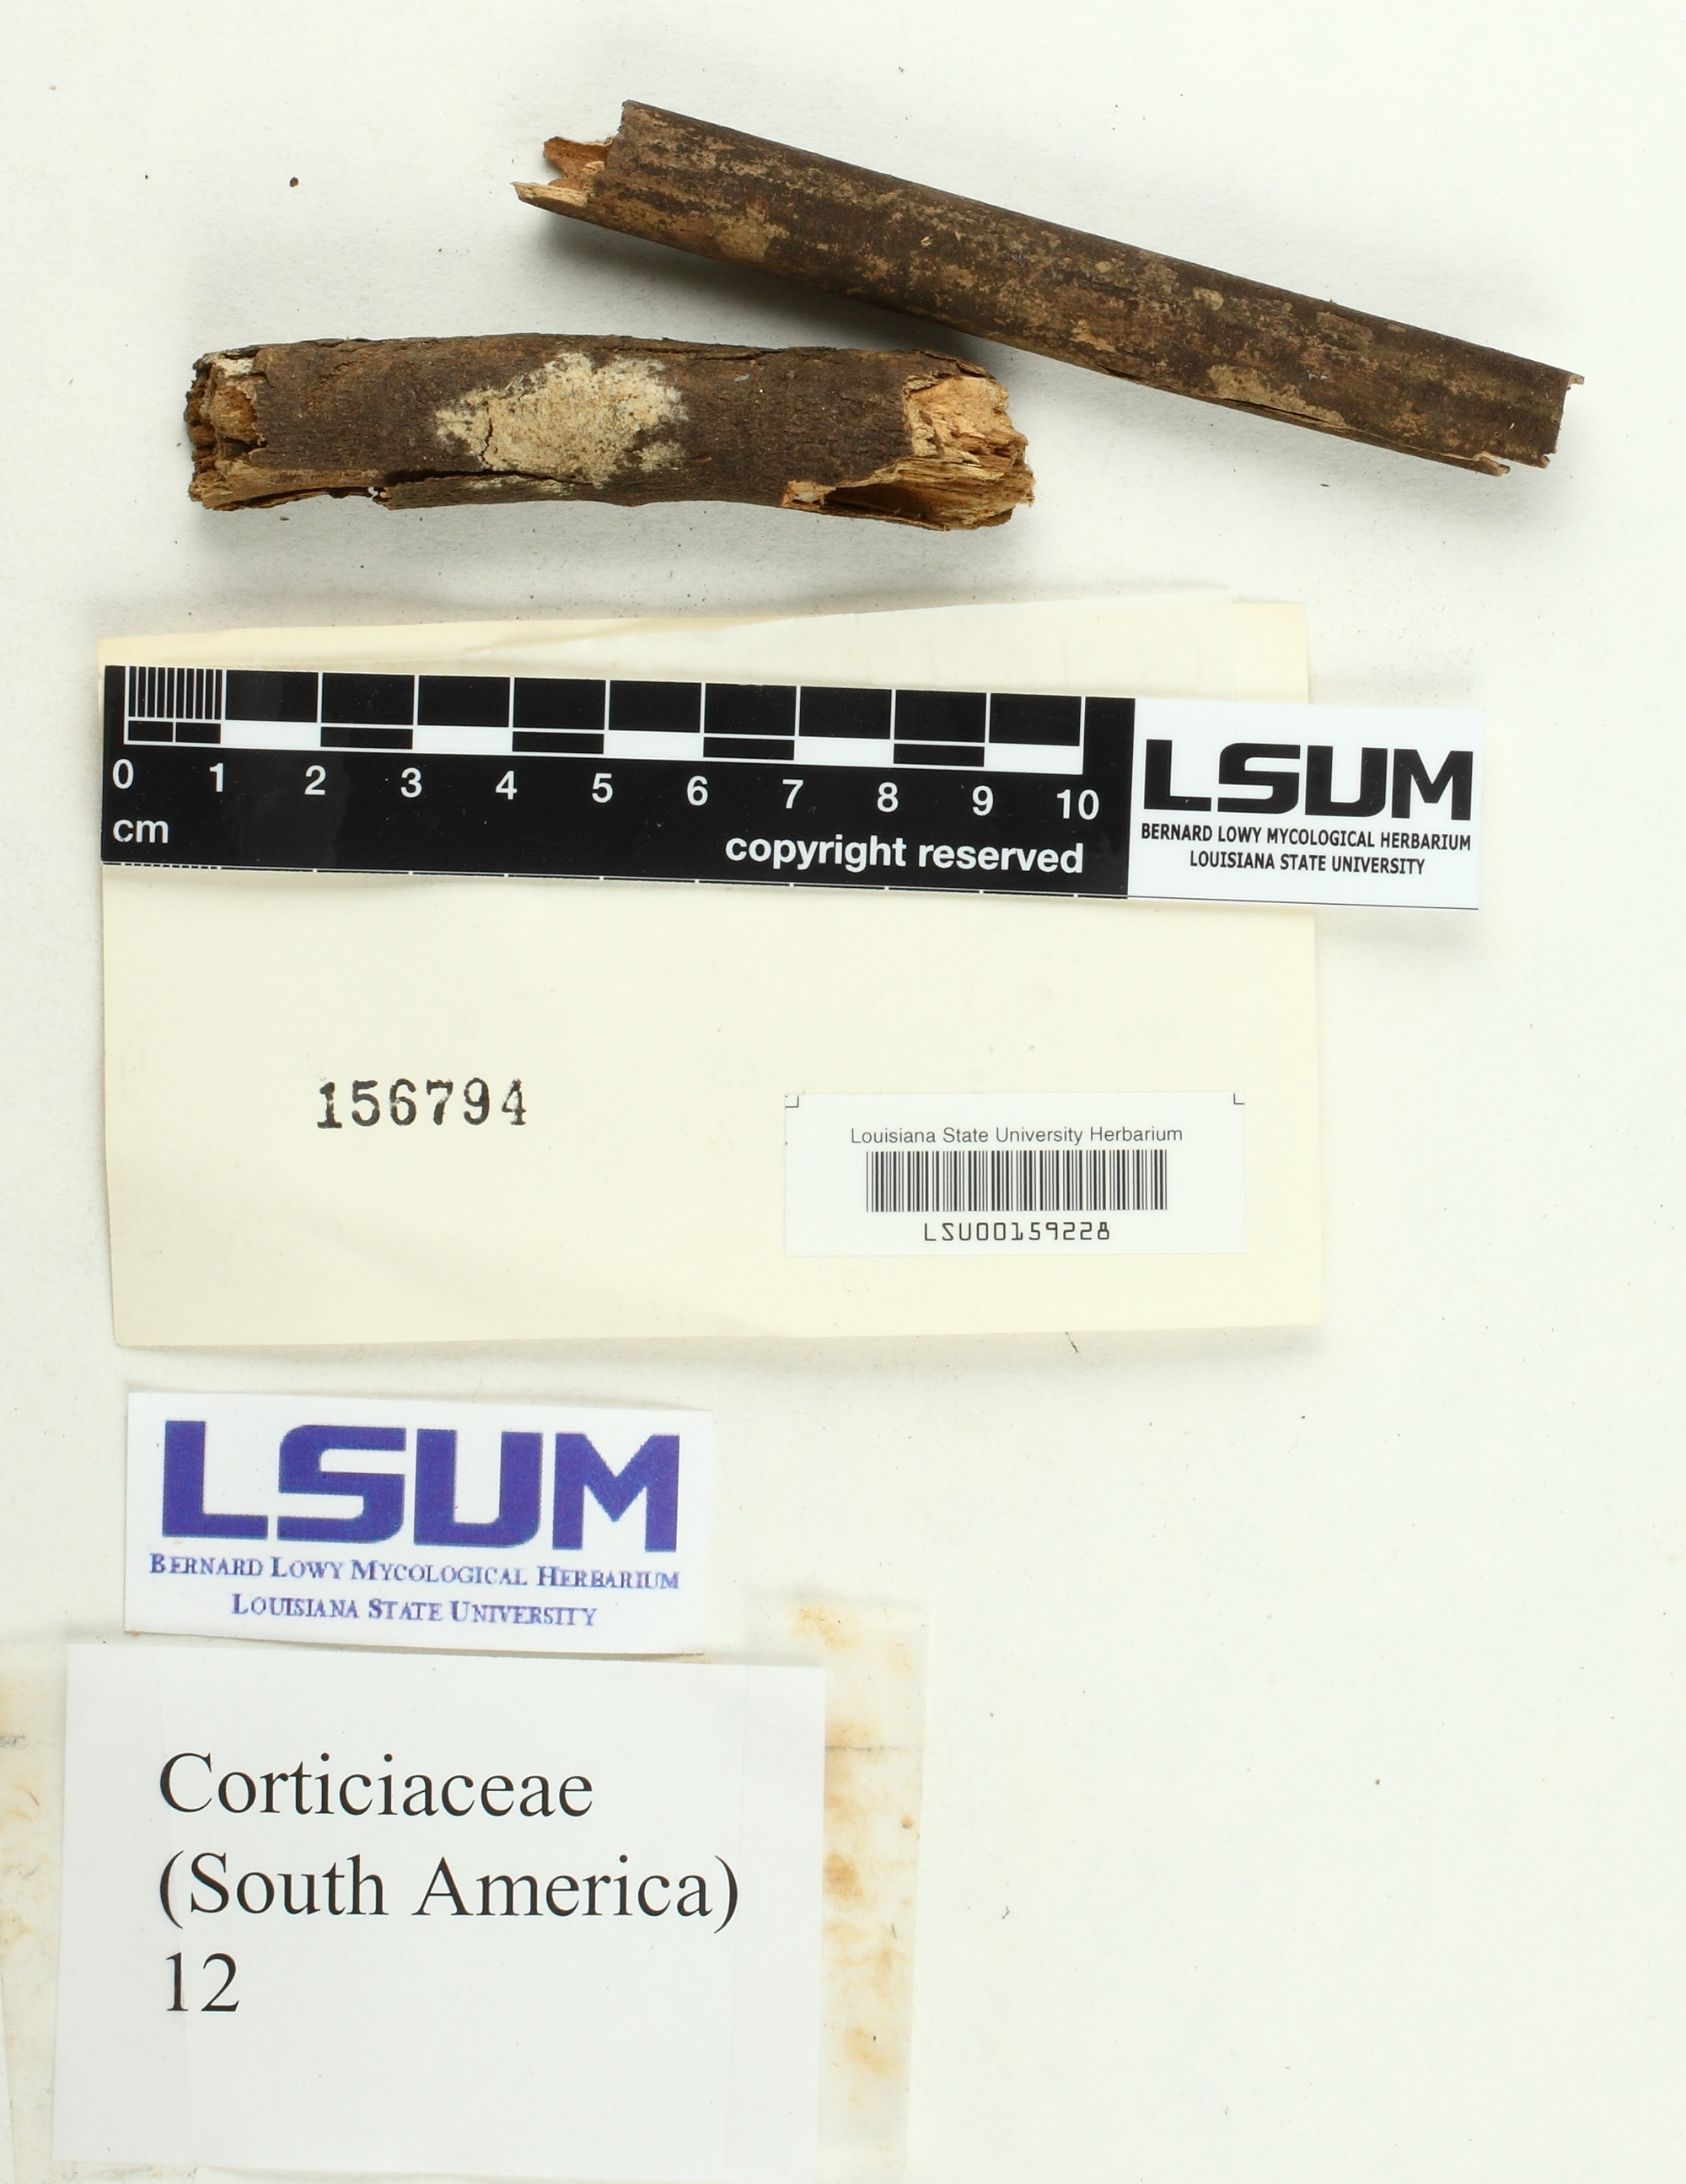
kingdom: Fungi
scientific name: Fungi
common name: Fungi
